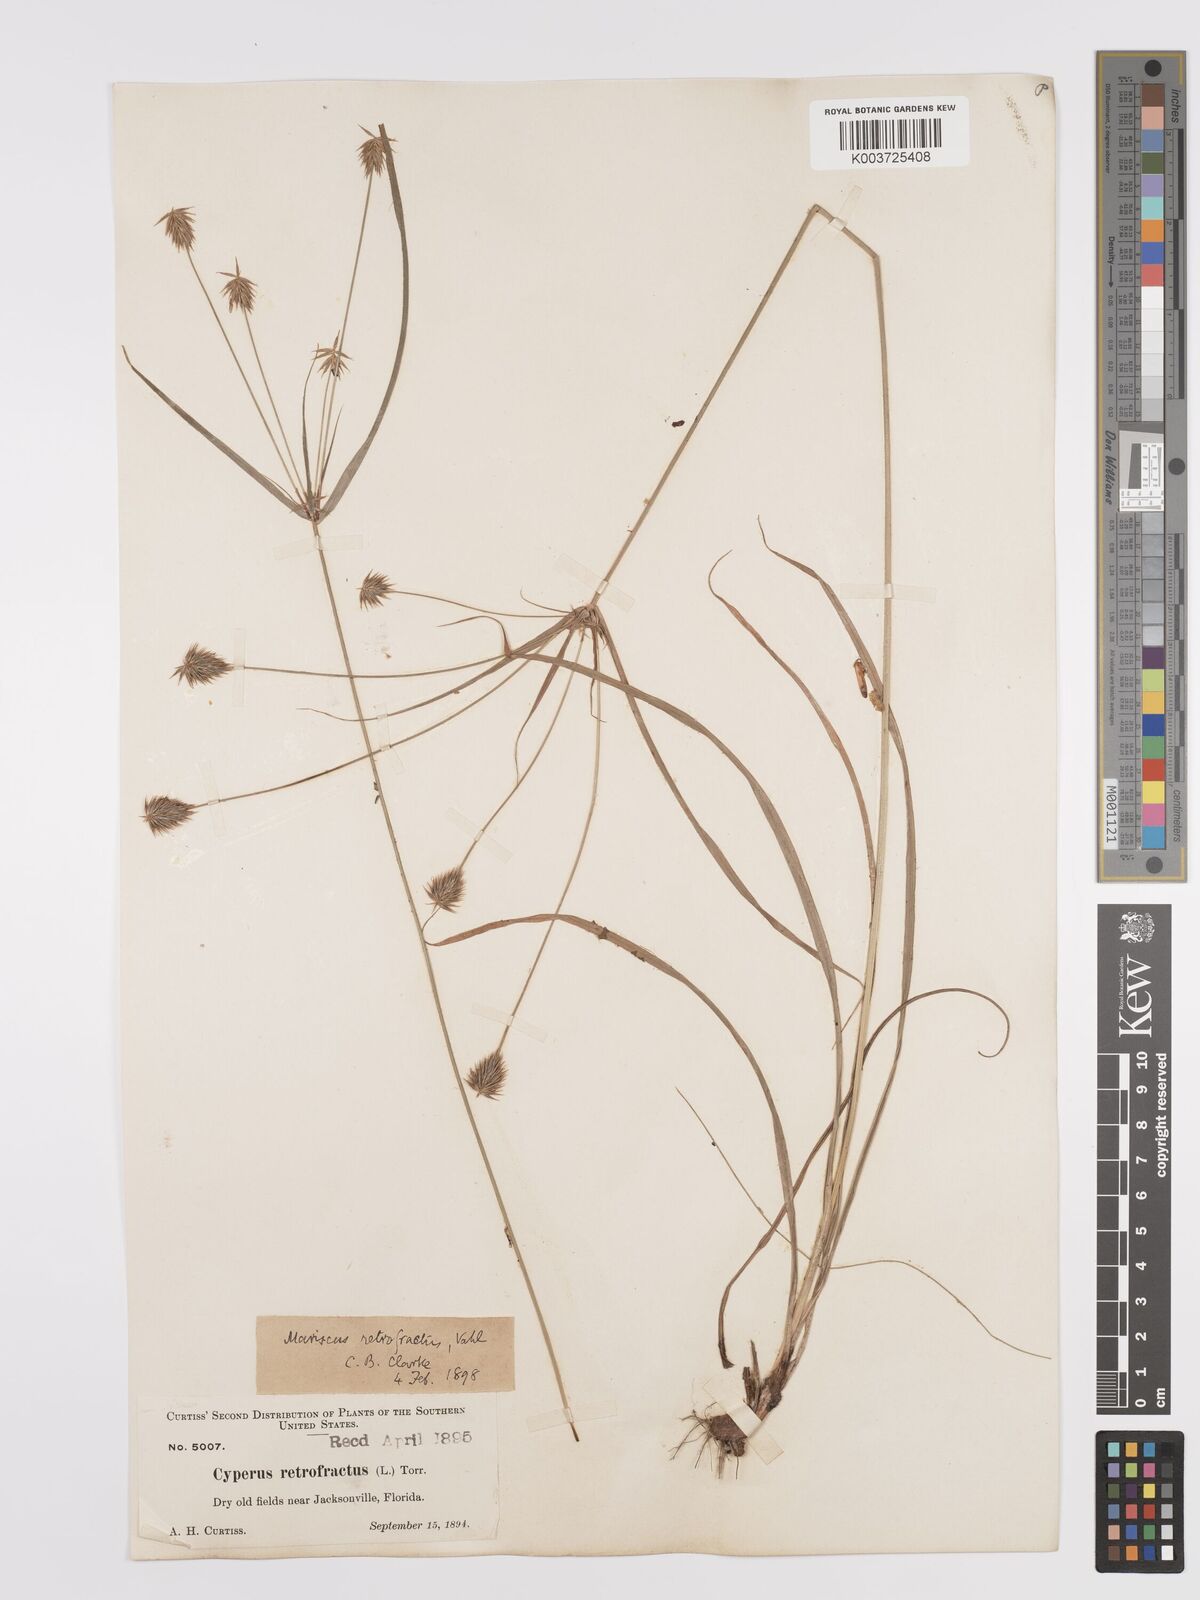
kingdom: Plantae
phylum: Tracheophyta
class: Liliopsida
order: Poales
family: Cyperaceae
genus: Cyperus
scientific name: Cyperus retrofractus
